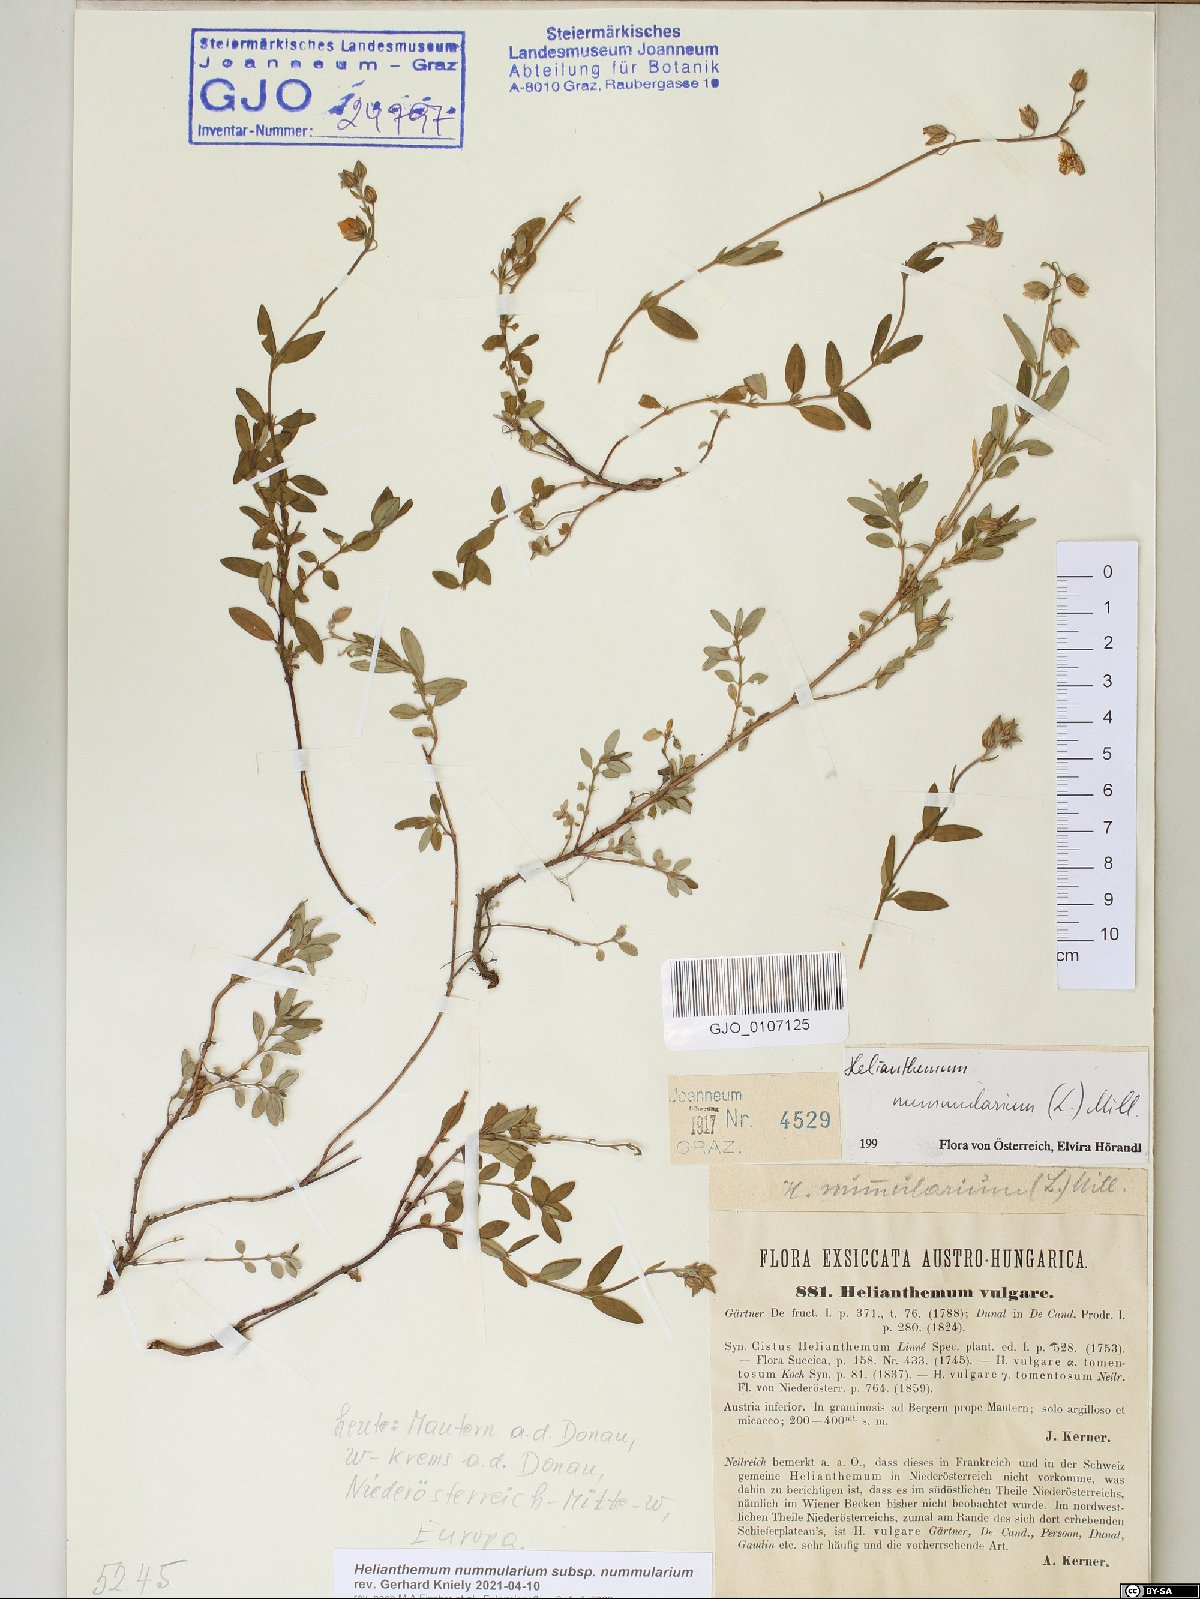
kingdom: Plantae
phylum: Tracheophyta
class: Magnoliopsida
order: Malvales
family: Cistaceae
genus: Helianthemum
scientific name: Helianthemum nummularium
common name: Common rock-rose
